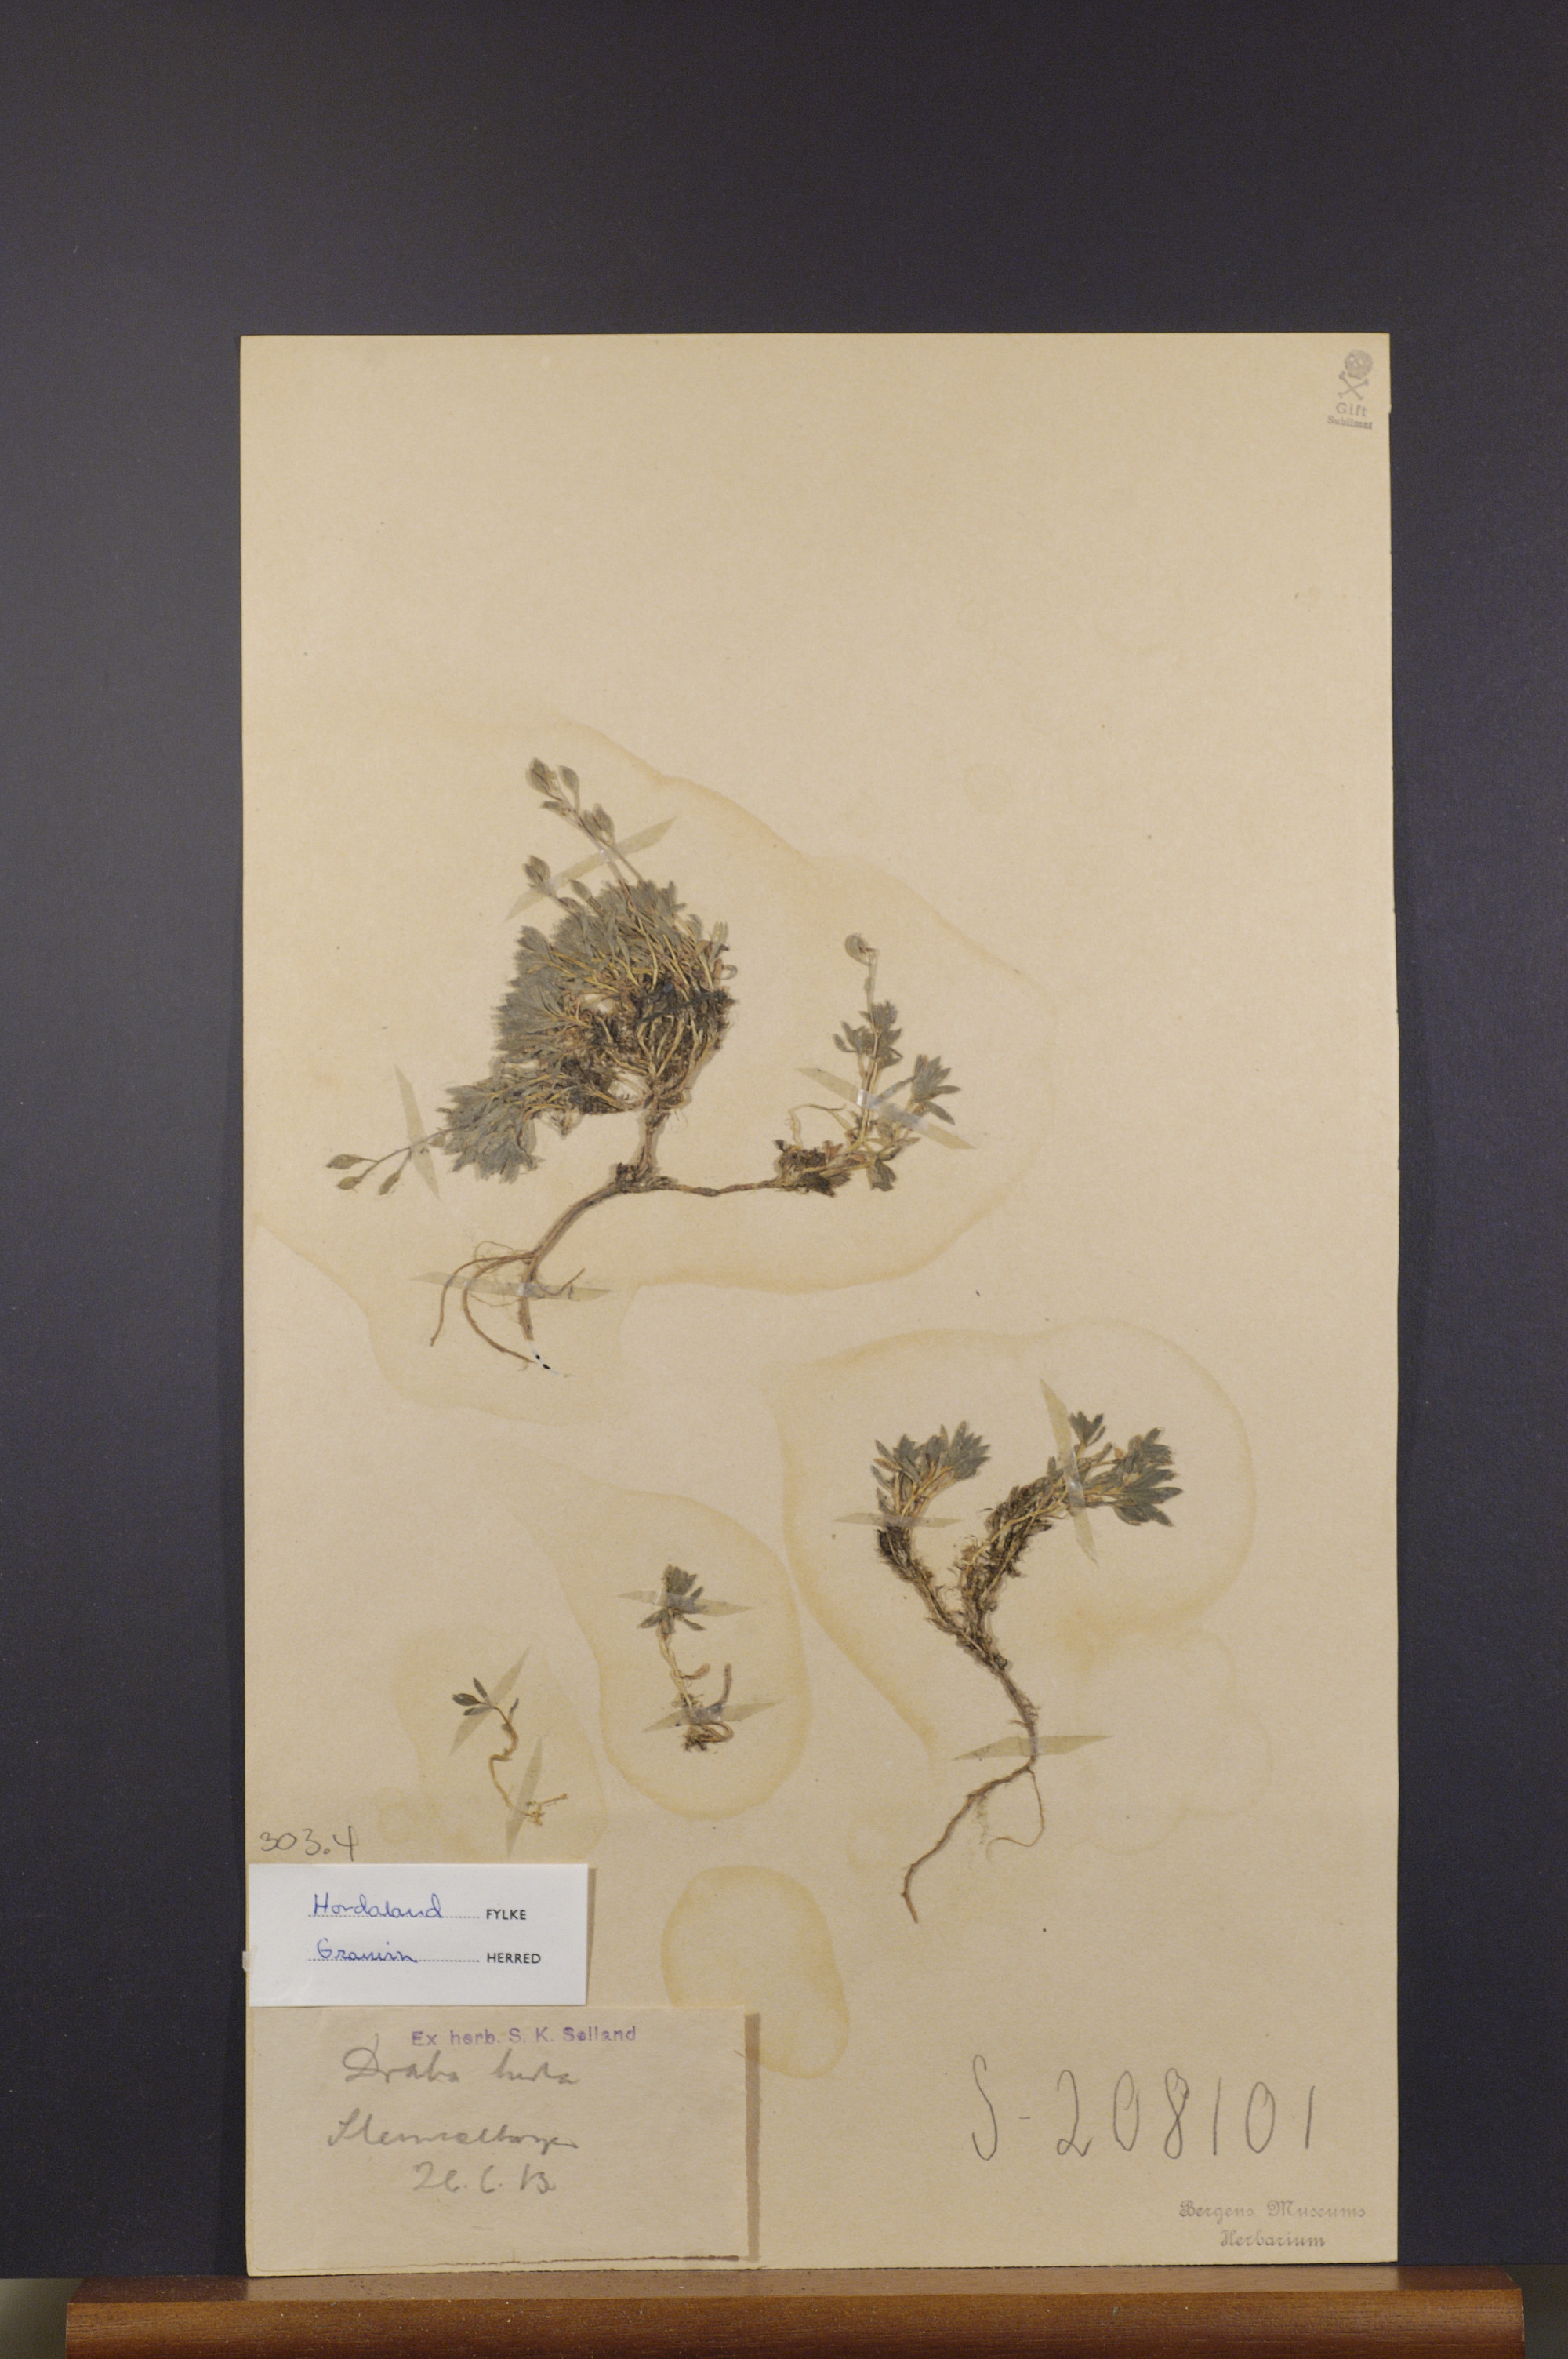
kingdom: Plantae
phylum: Tracheophyta
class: Magnoliopsida
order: Brassicales
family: Brassicaceae
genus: Draba
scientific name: Draba norvegica
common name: Rock whitlowgrass
